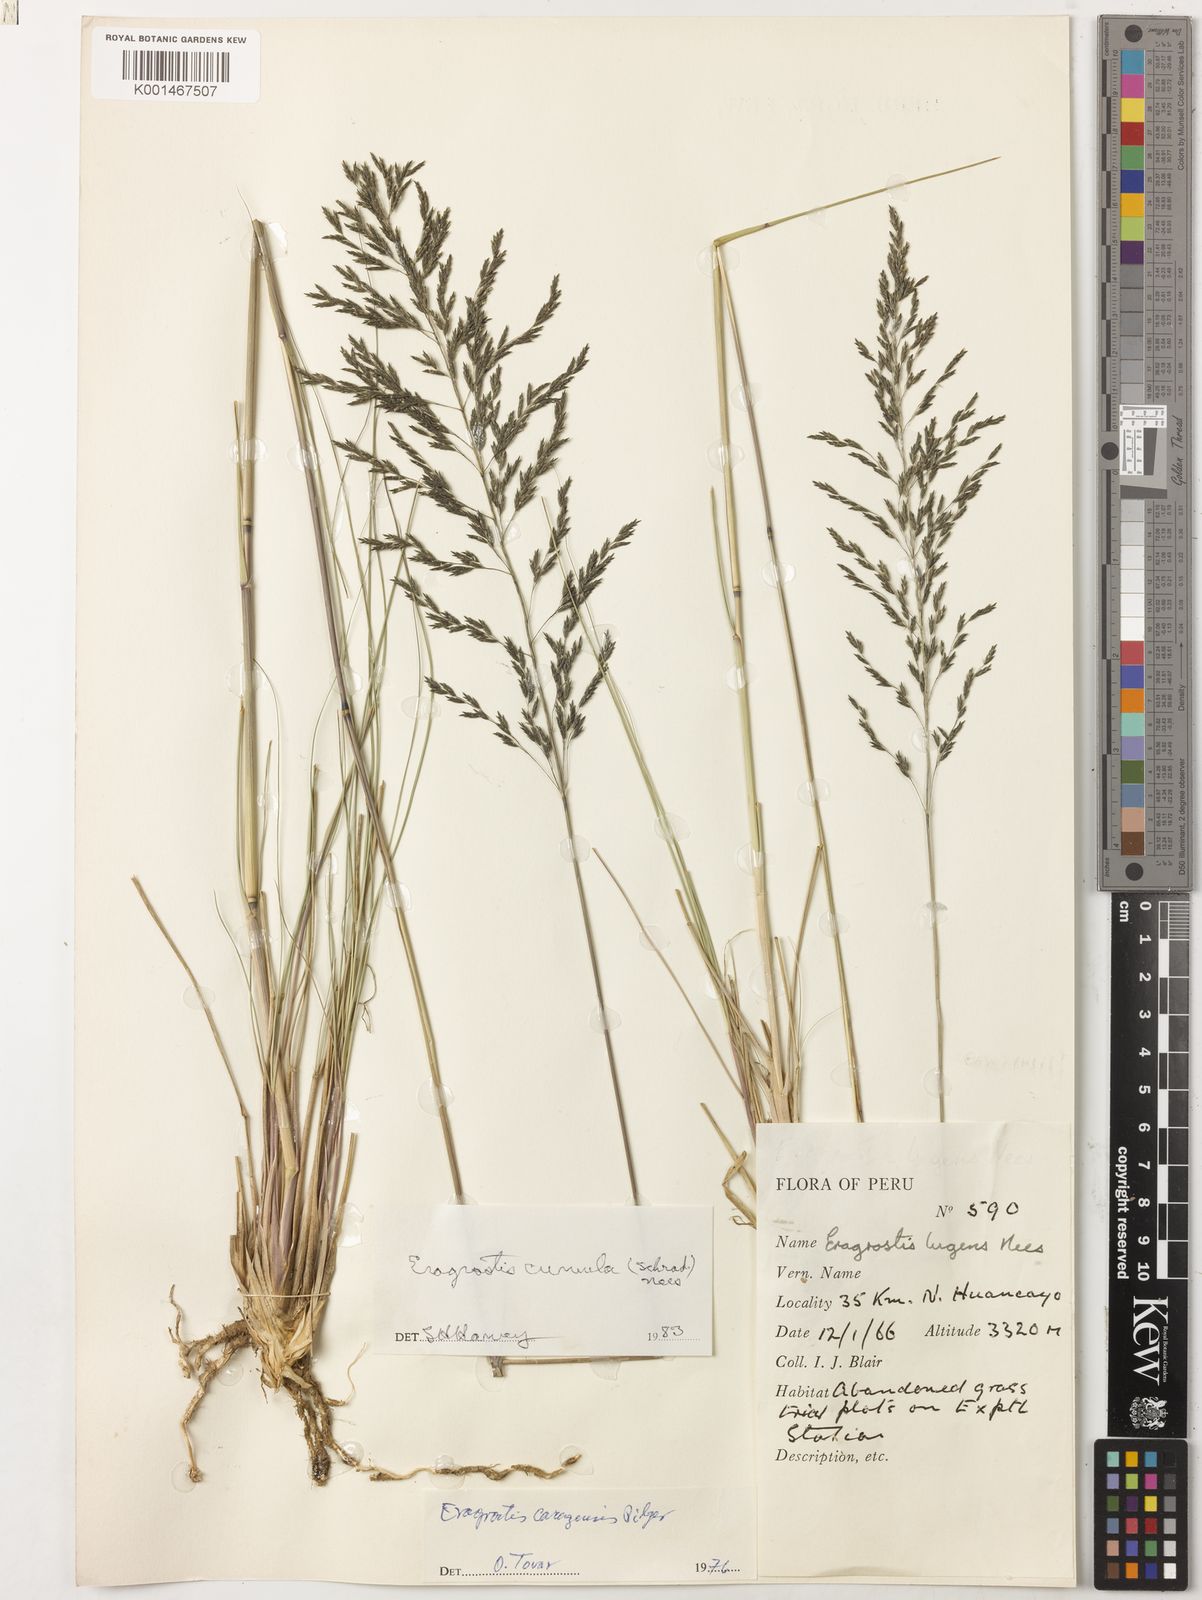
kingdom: Plantae
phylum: Tracheophyta
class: Liliopsida
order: Poales
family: Poaceae
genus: Eragrostis
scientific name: Eragrostis curvula
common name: African love-grass
